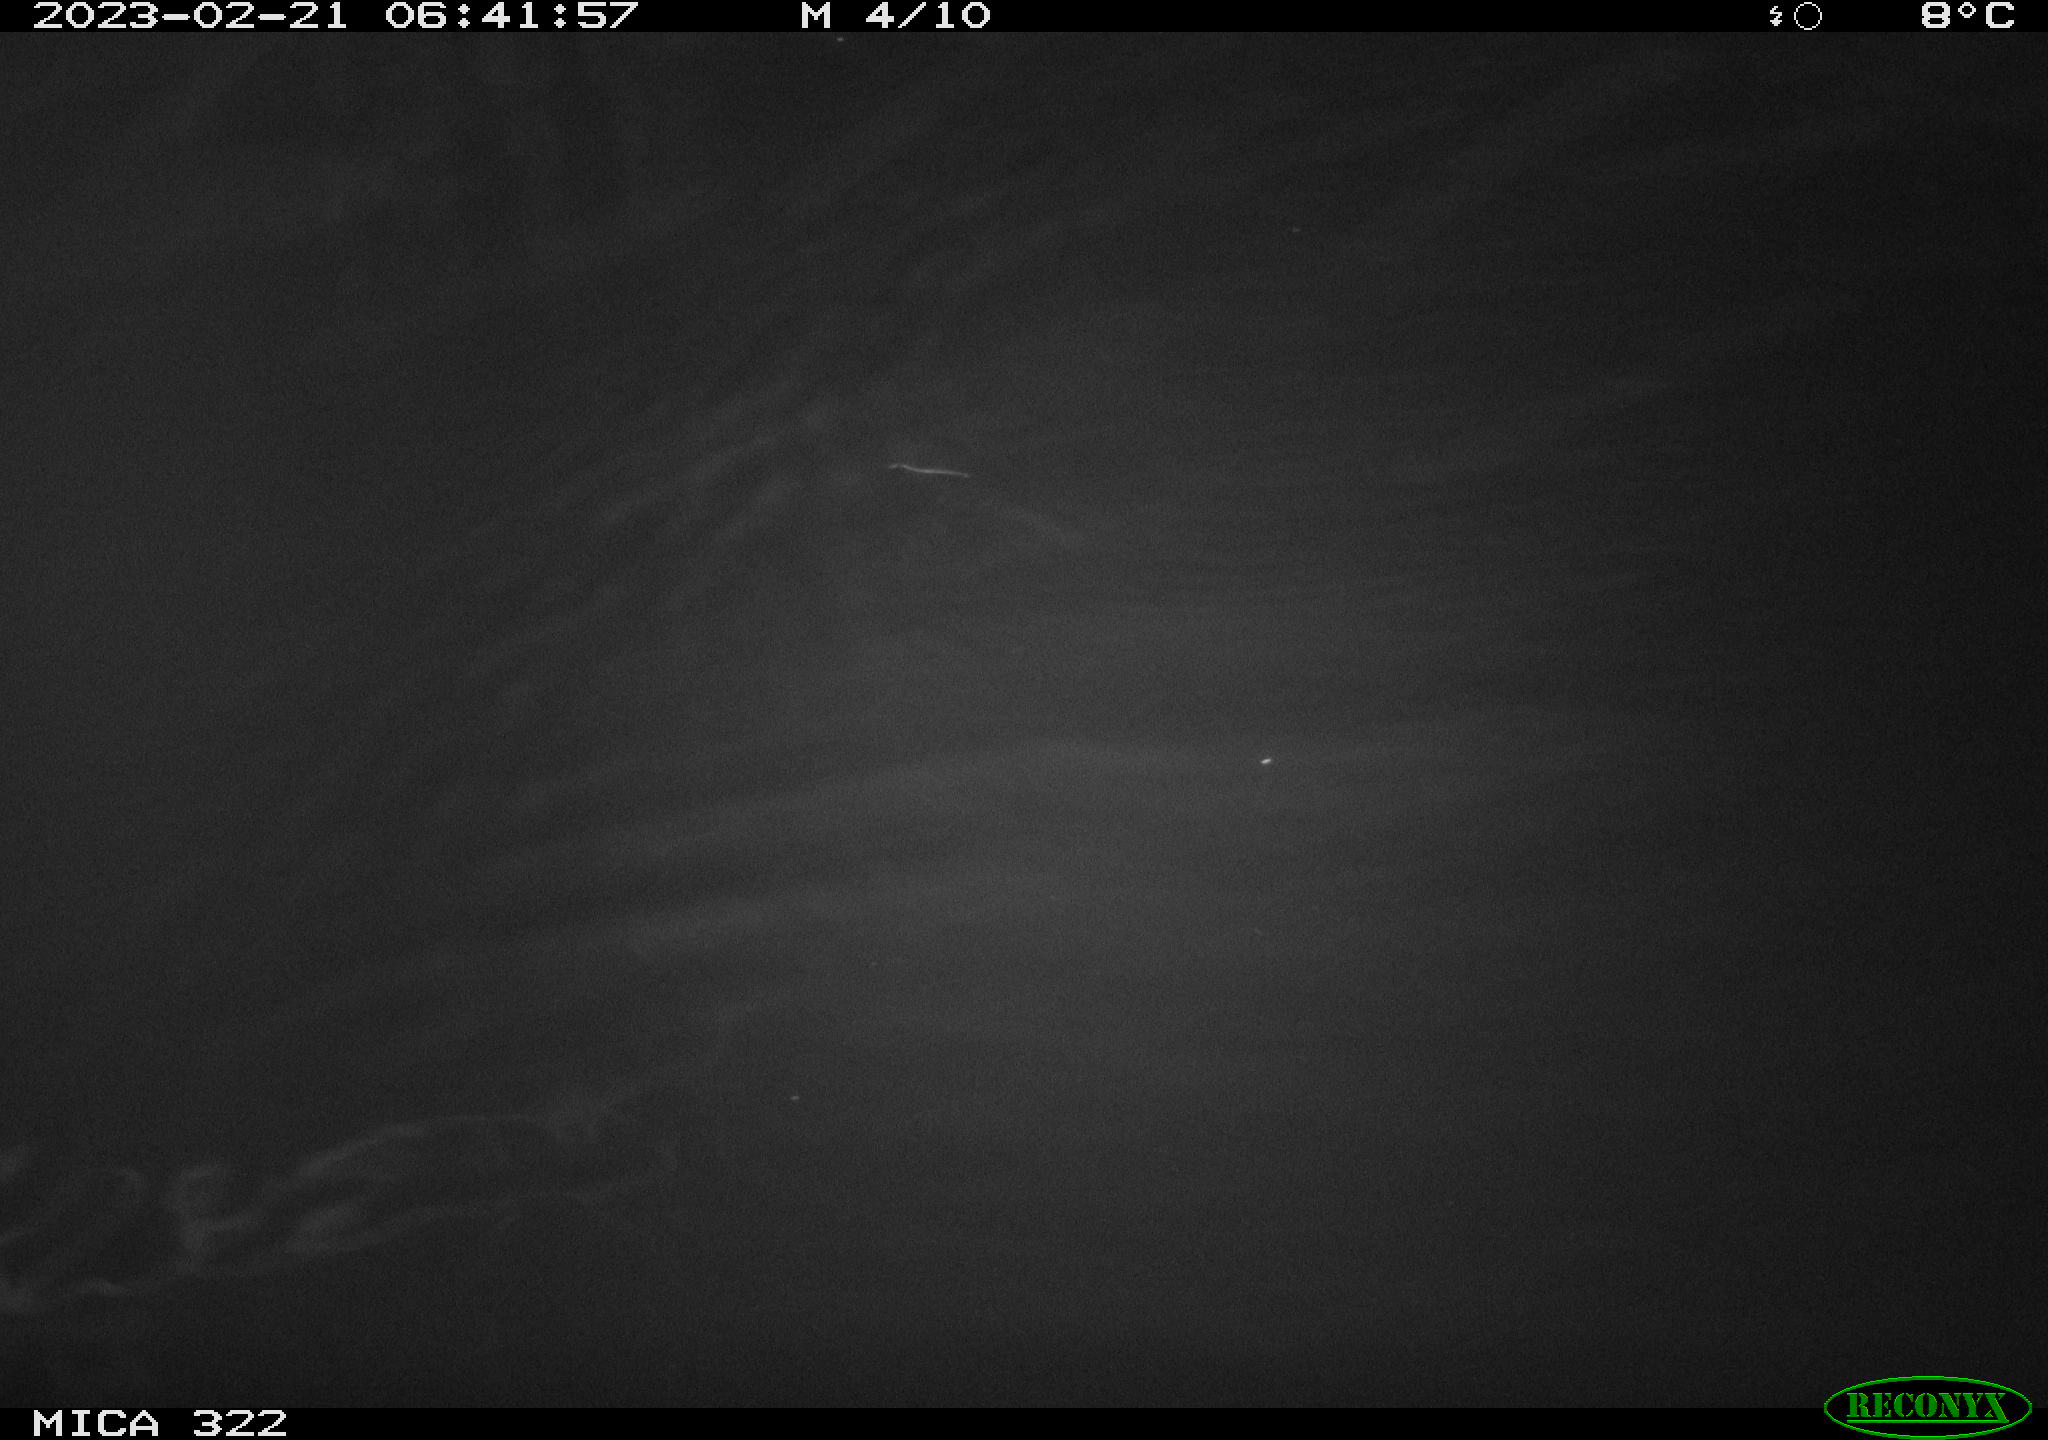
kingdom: Animalia
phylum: Chordata
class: Mammalia
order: Rodentia
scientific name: Rodentia
